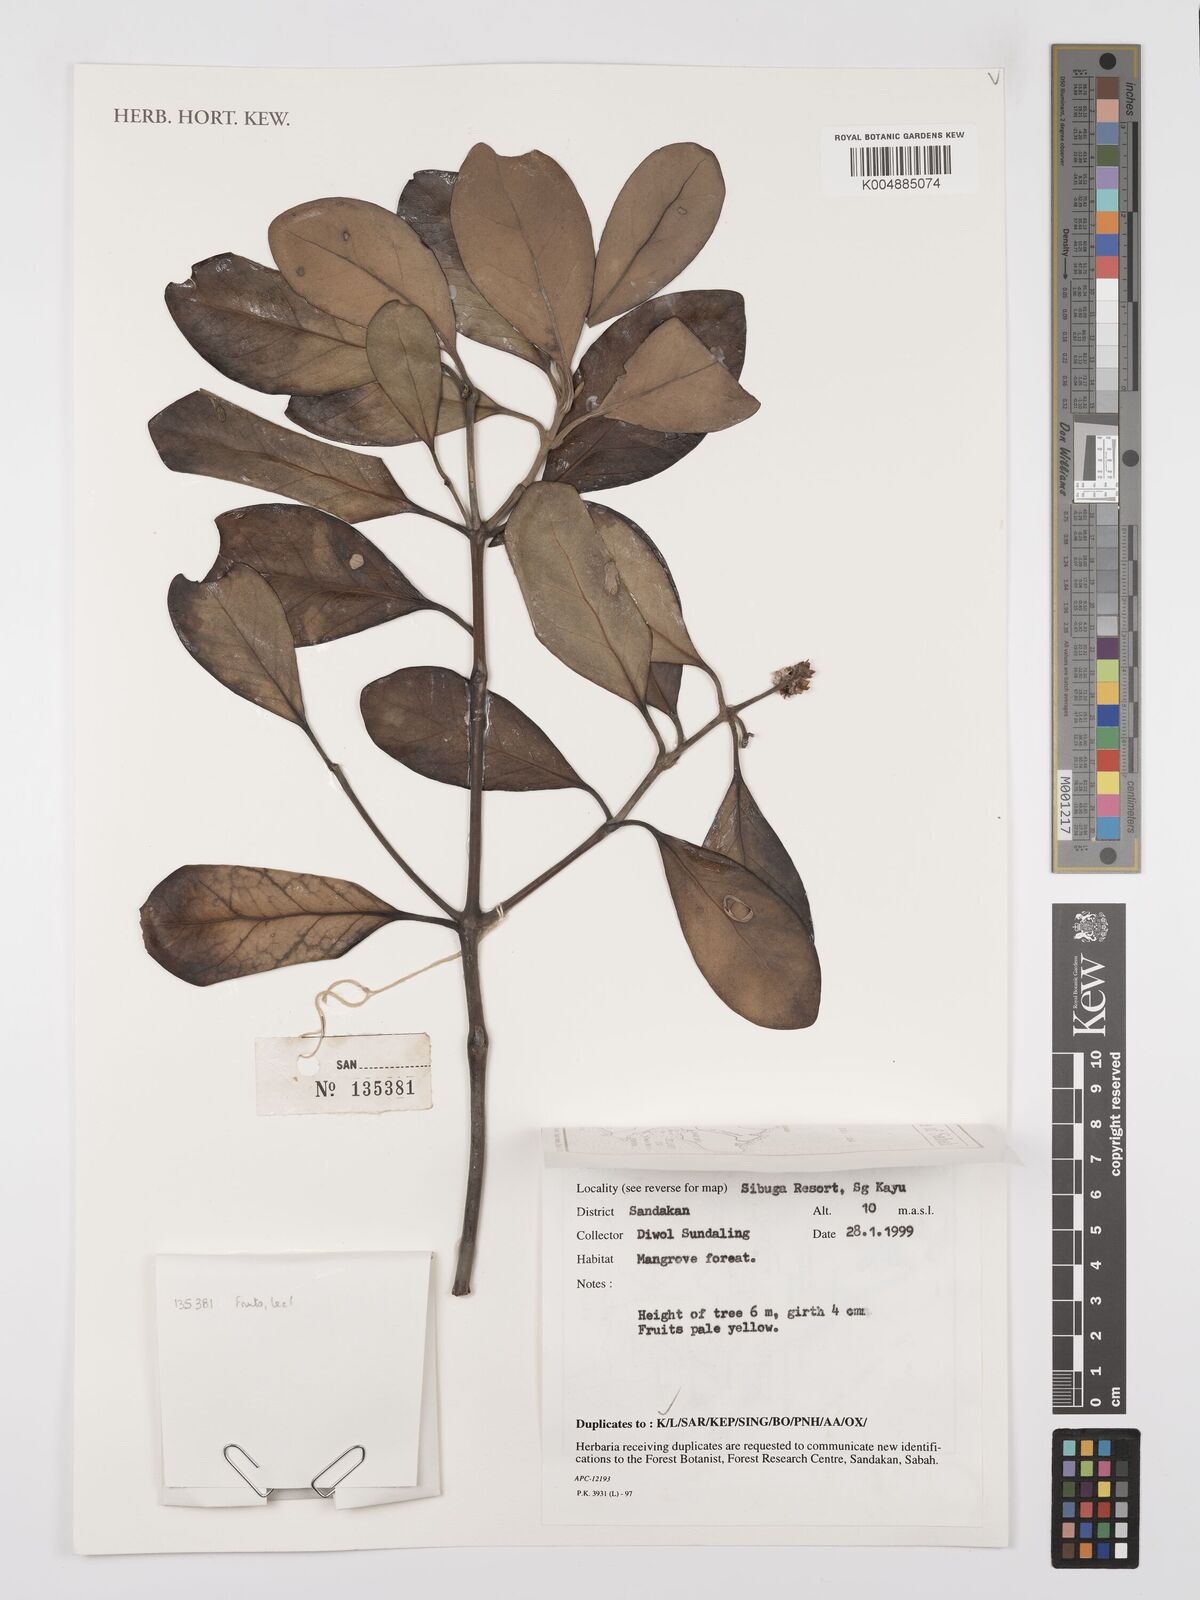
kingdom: Plantae
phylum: Tracheophyta
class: Magnoliopsida
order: Lamiales
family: Acanthaceae
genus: Avicennia
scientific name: Avicennia alba
